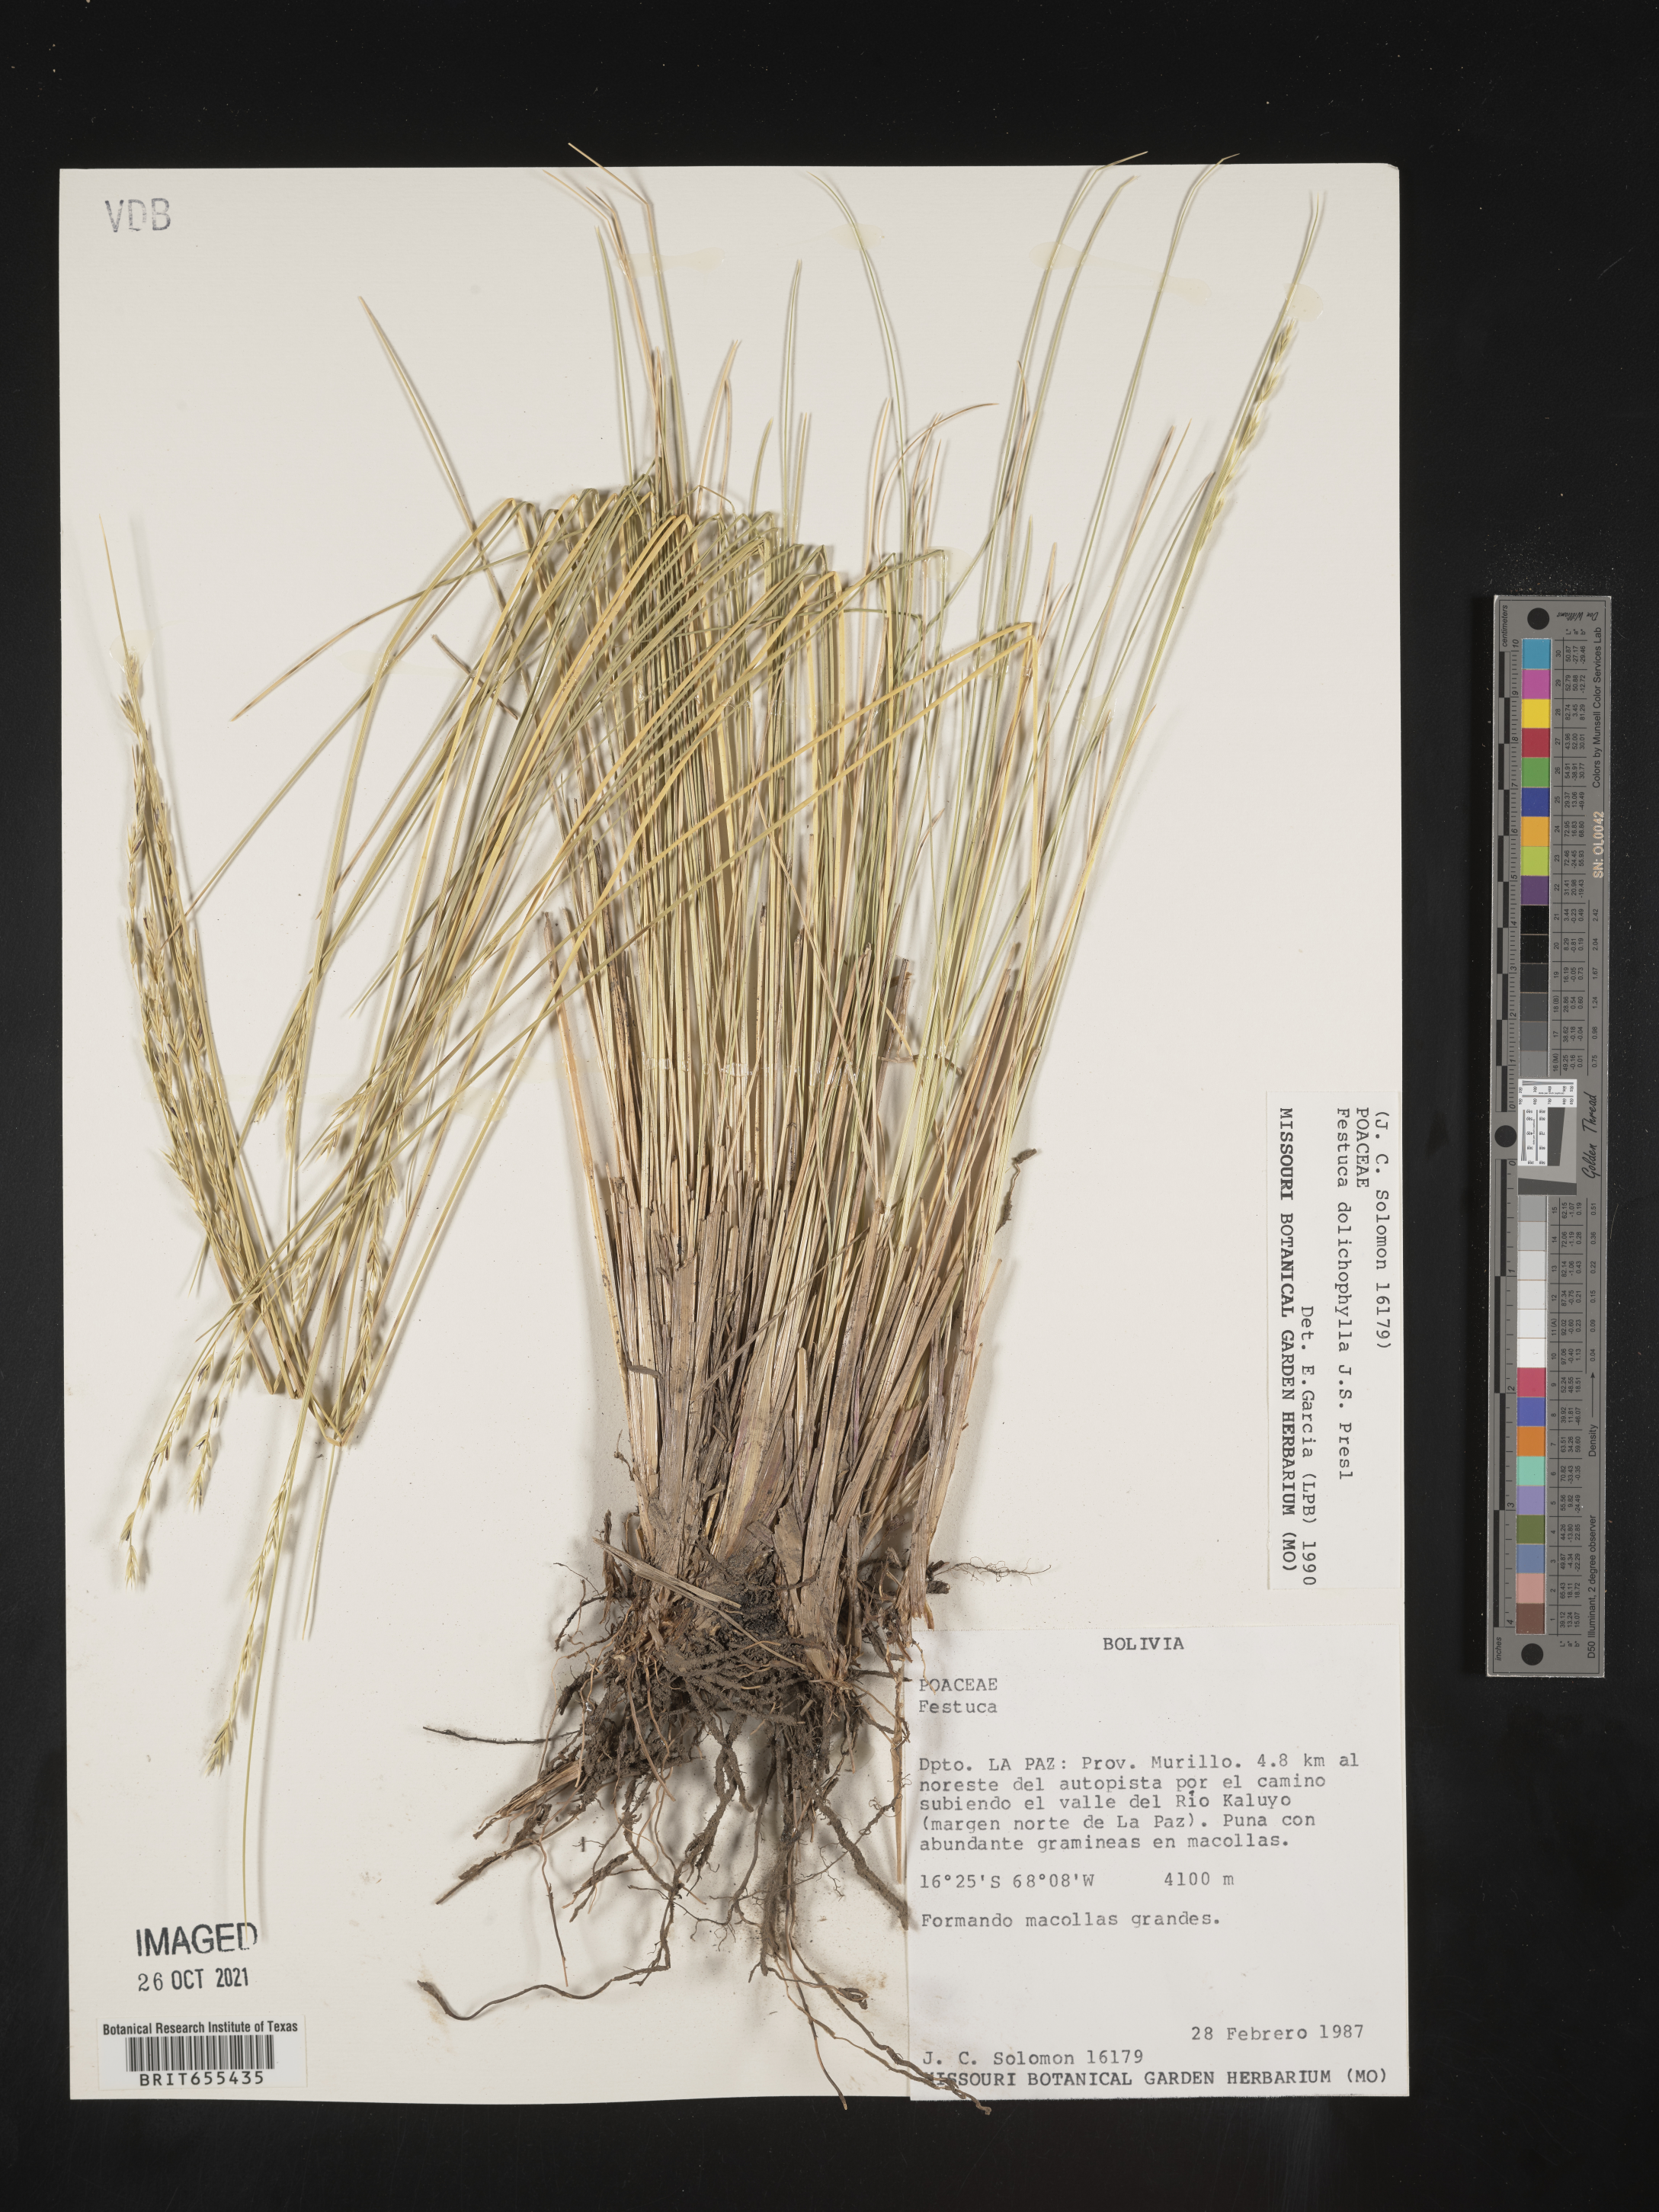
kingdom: Plantae
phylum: Tracheophyta
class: Liliopsida
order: Poales
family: Poaceae
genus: Festuca
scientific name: Festuca
